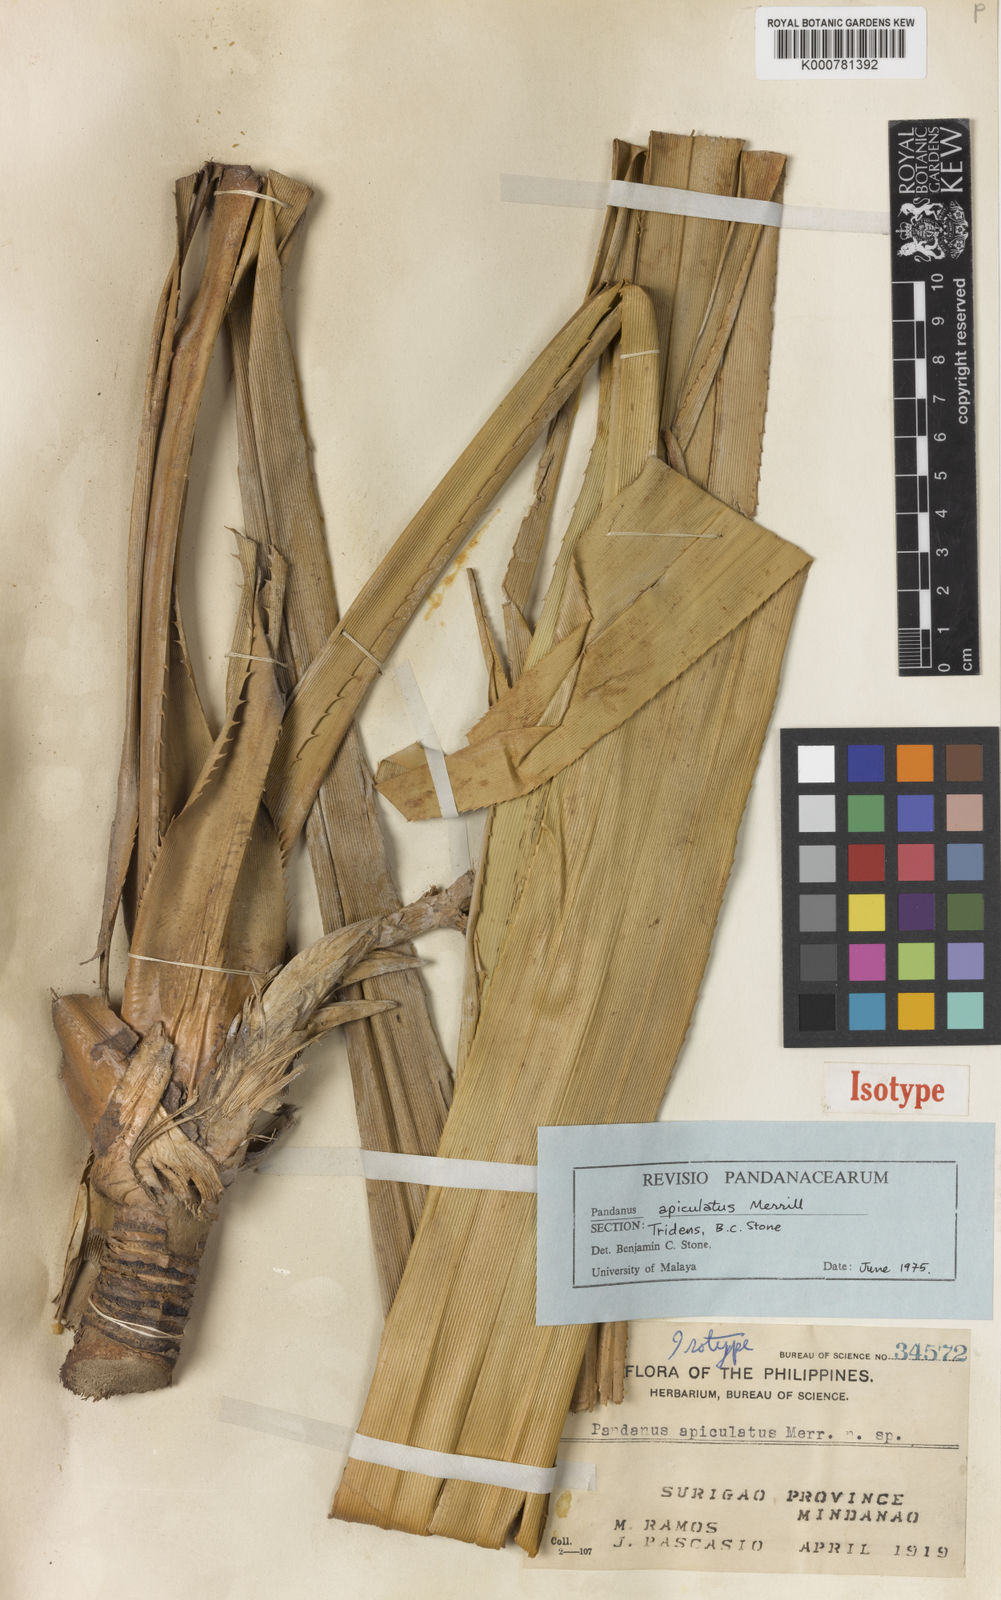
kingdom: Plantae
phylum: Tracheophyta
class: Liliopsida
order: Pandanales
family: Pandanaceae
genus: Pandanus
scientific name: Pandanus
